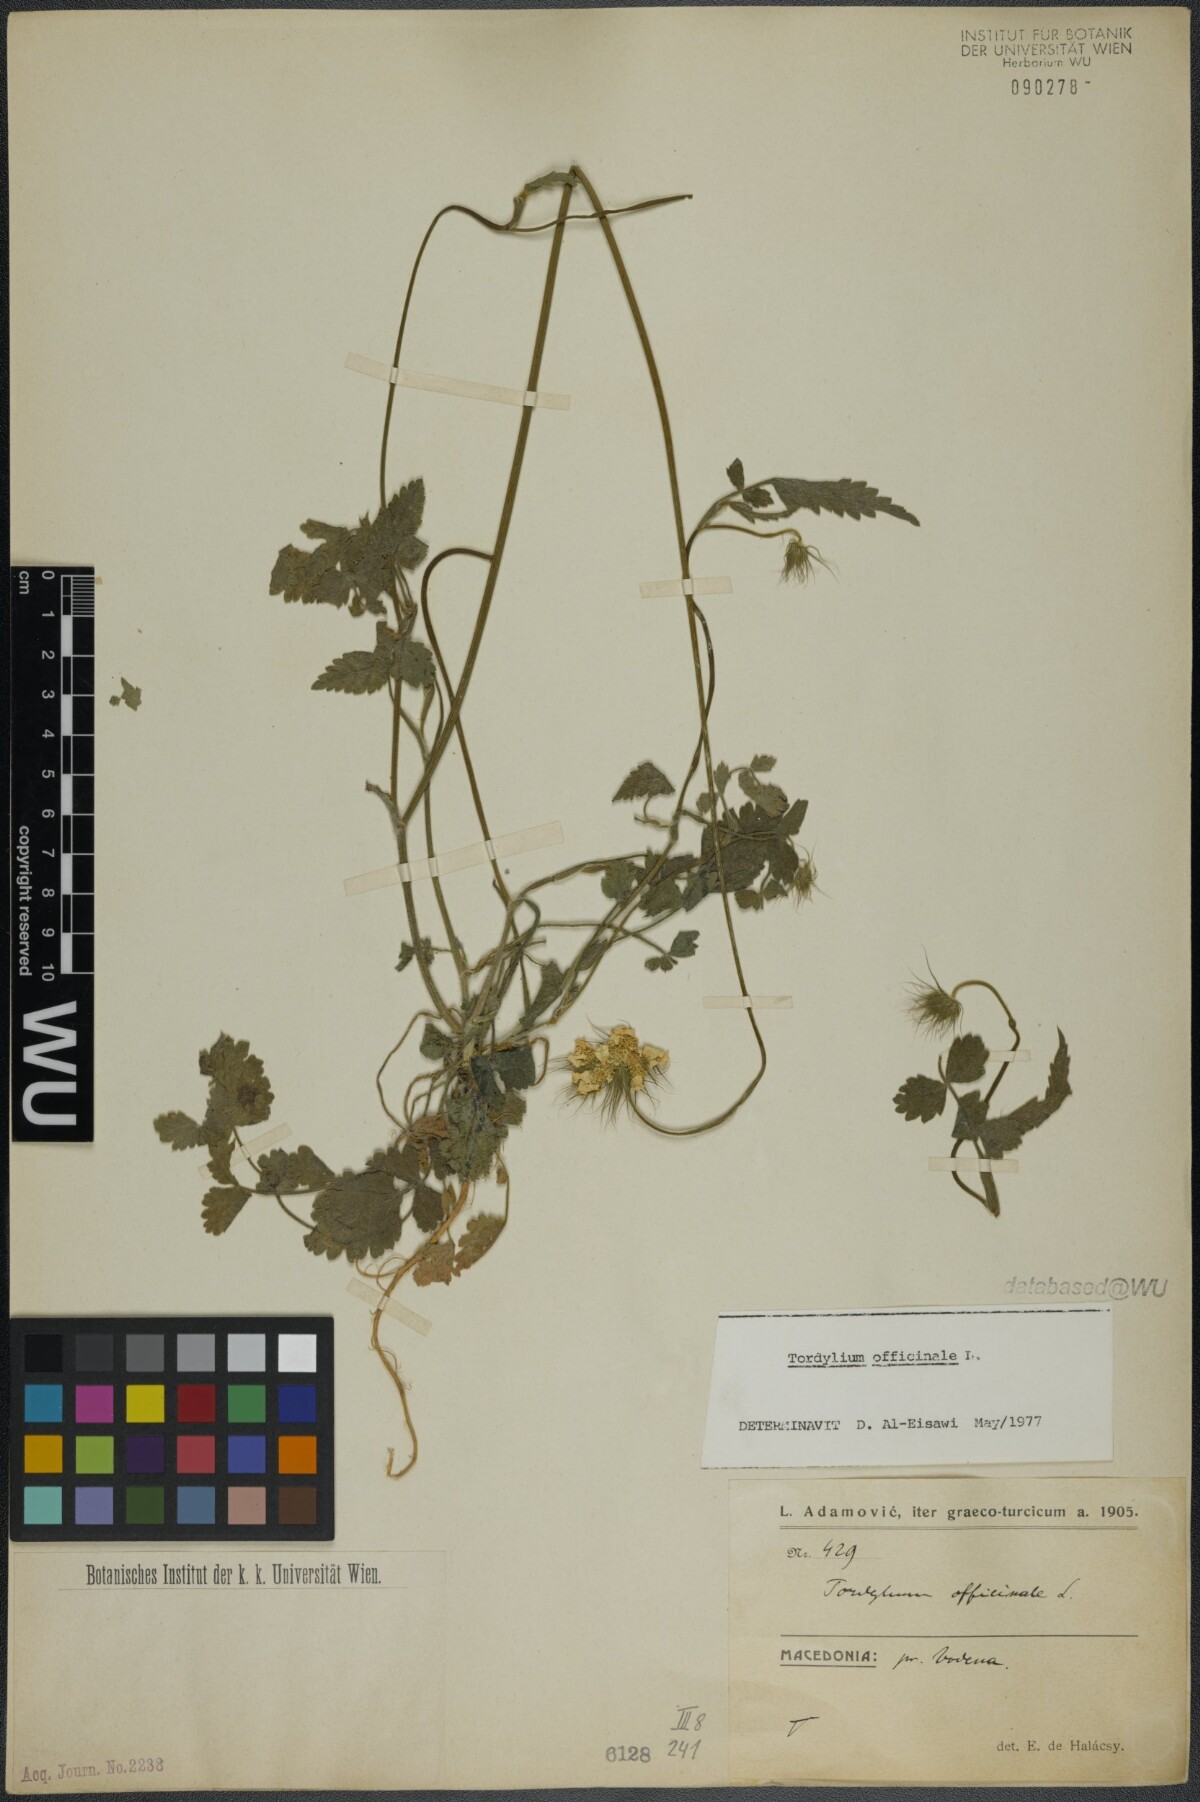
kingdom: Plantae
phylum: Tracheophyta
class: Magnoliopsida
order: Apiales
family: Apiaceae
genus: Tordylium
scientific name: Tordylium officinale
